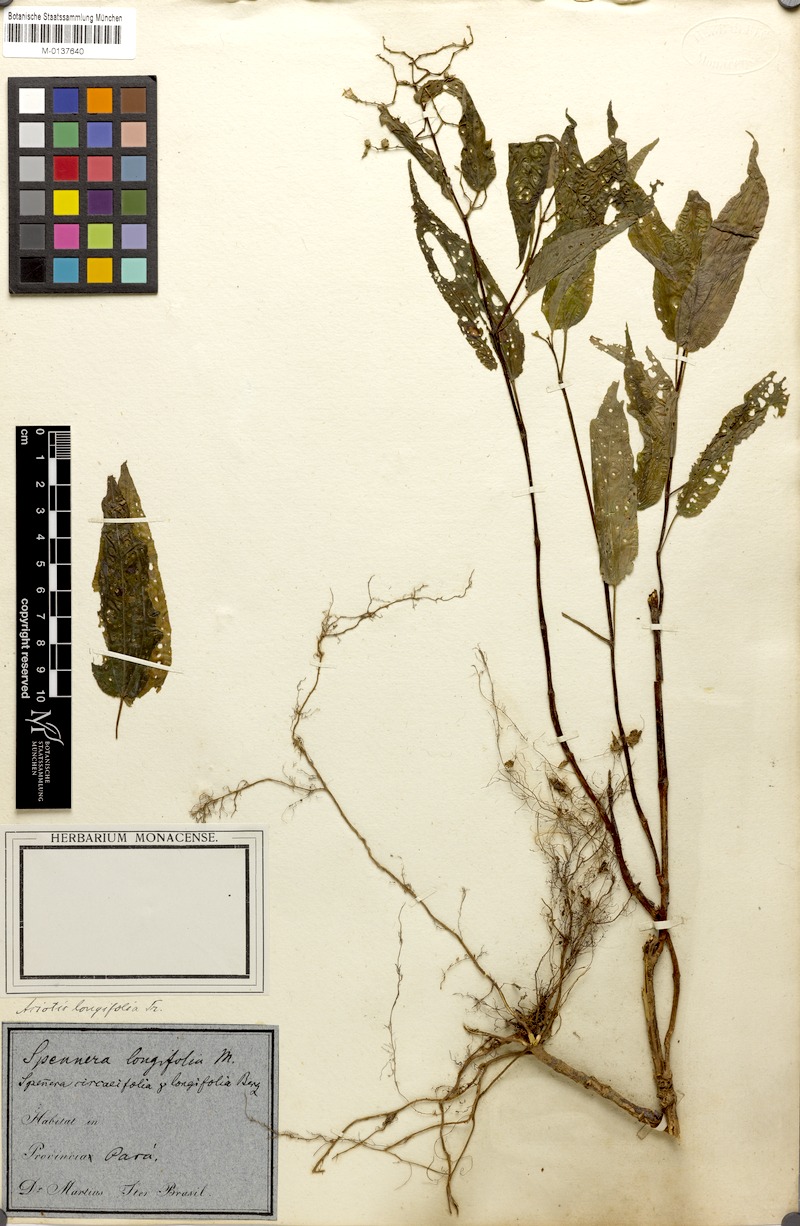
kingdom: Plantae
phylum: Tracheophyta
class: Magnoliopsida
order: Myrtales
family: Melastomataceae
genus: Aciotis
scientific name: Aciotis circaeifolia
